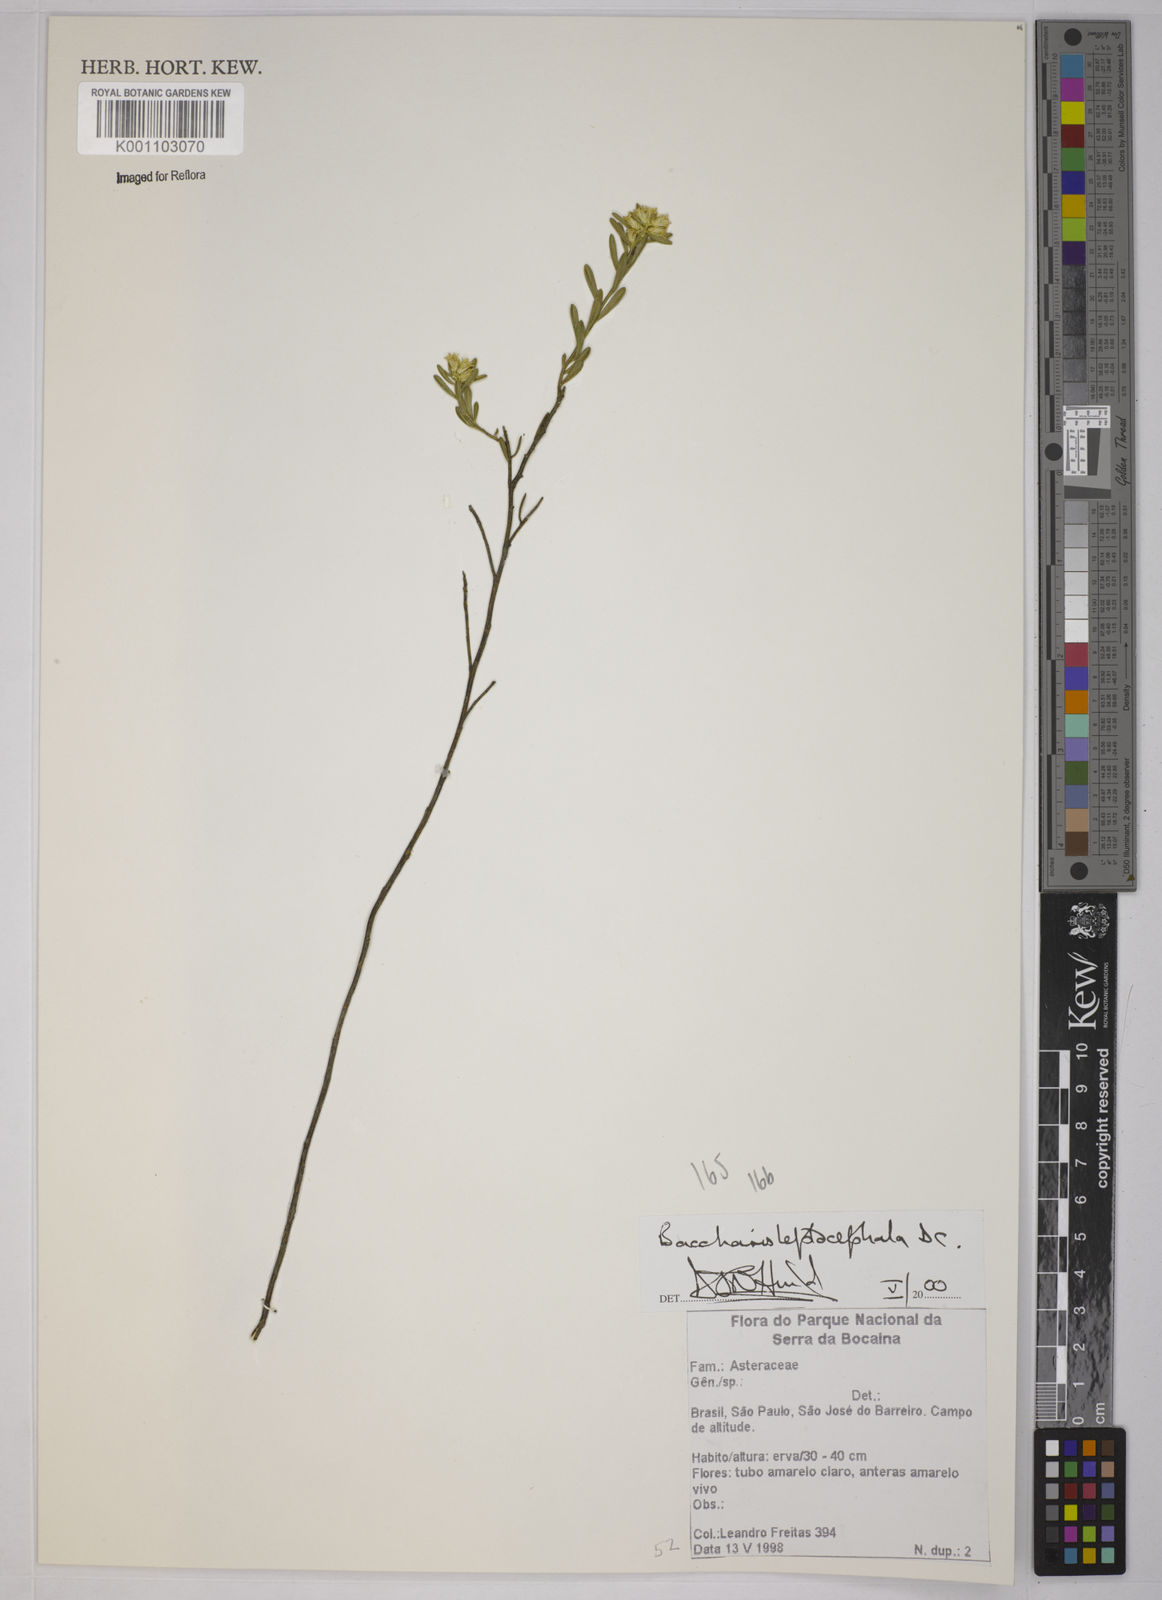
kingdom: Plantae
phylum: Tracheophyta
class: Magnoliopsida
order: Asterales
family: Asteraceae
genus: Baccharis
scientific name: Baccharis leptocephala
